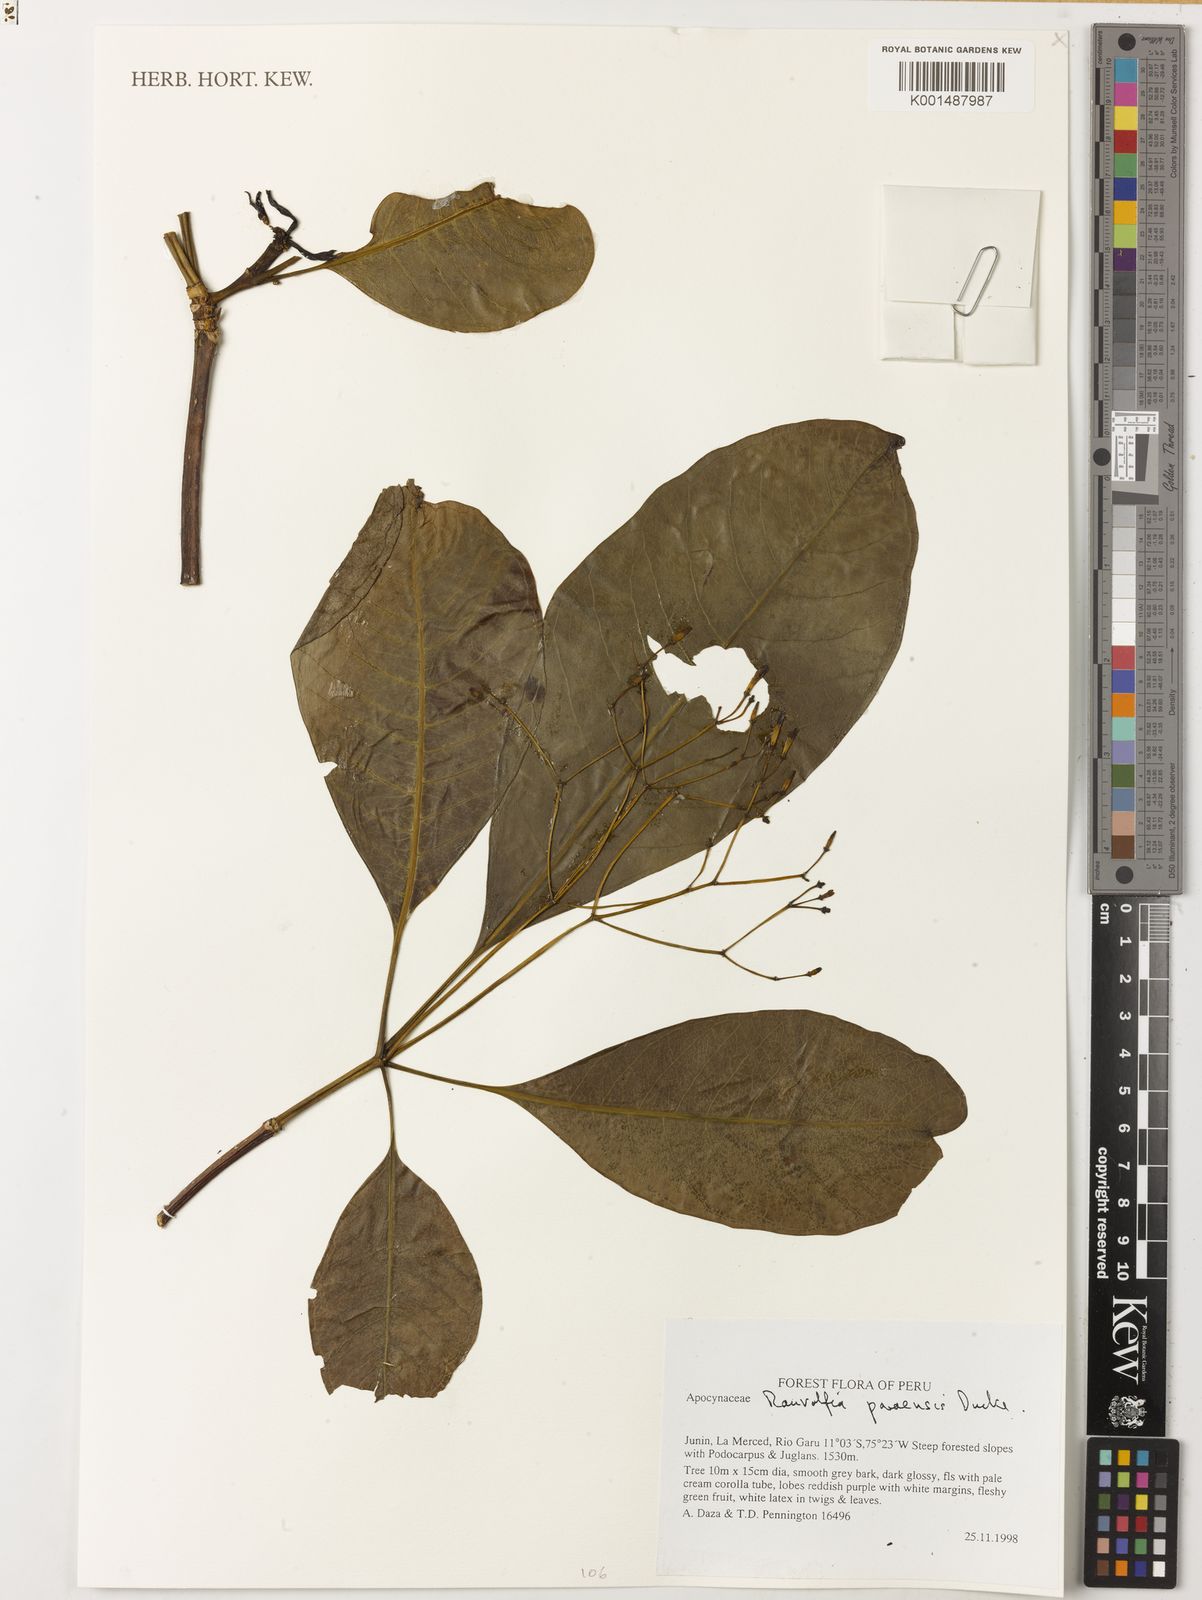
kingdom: Plantae
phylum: Tracheophyta
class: Magnoliopsida
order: Gentianales
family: Apocynaceae
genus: Rauvolfia
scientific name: Rauvolfia paraensis
